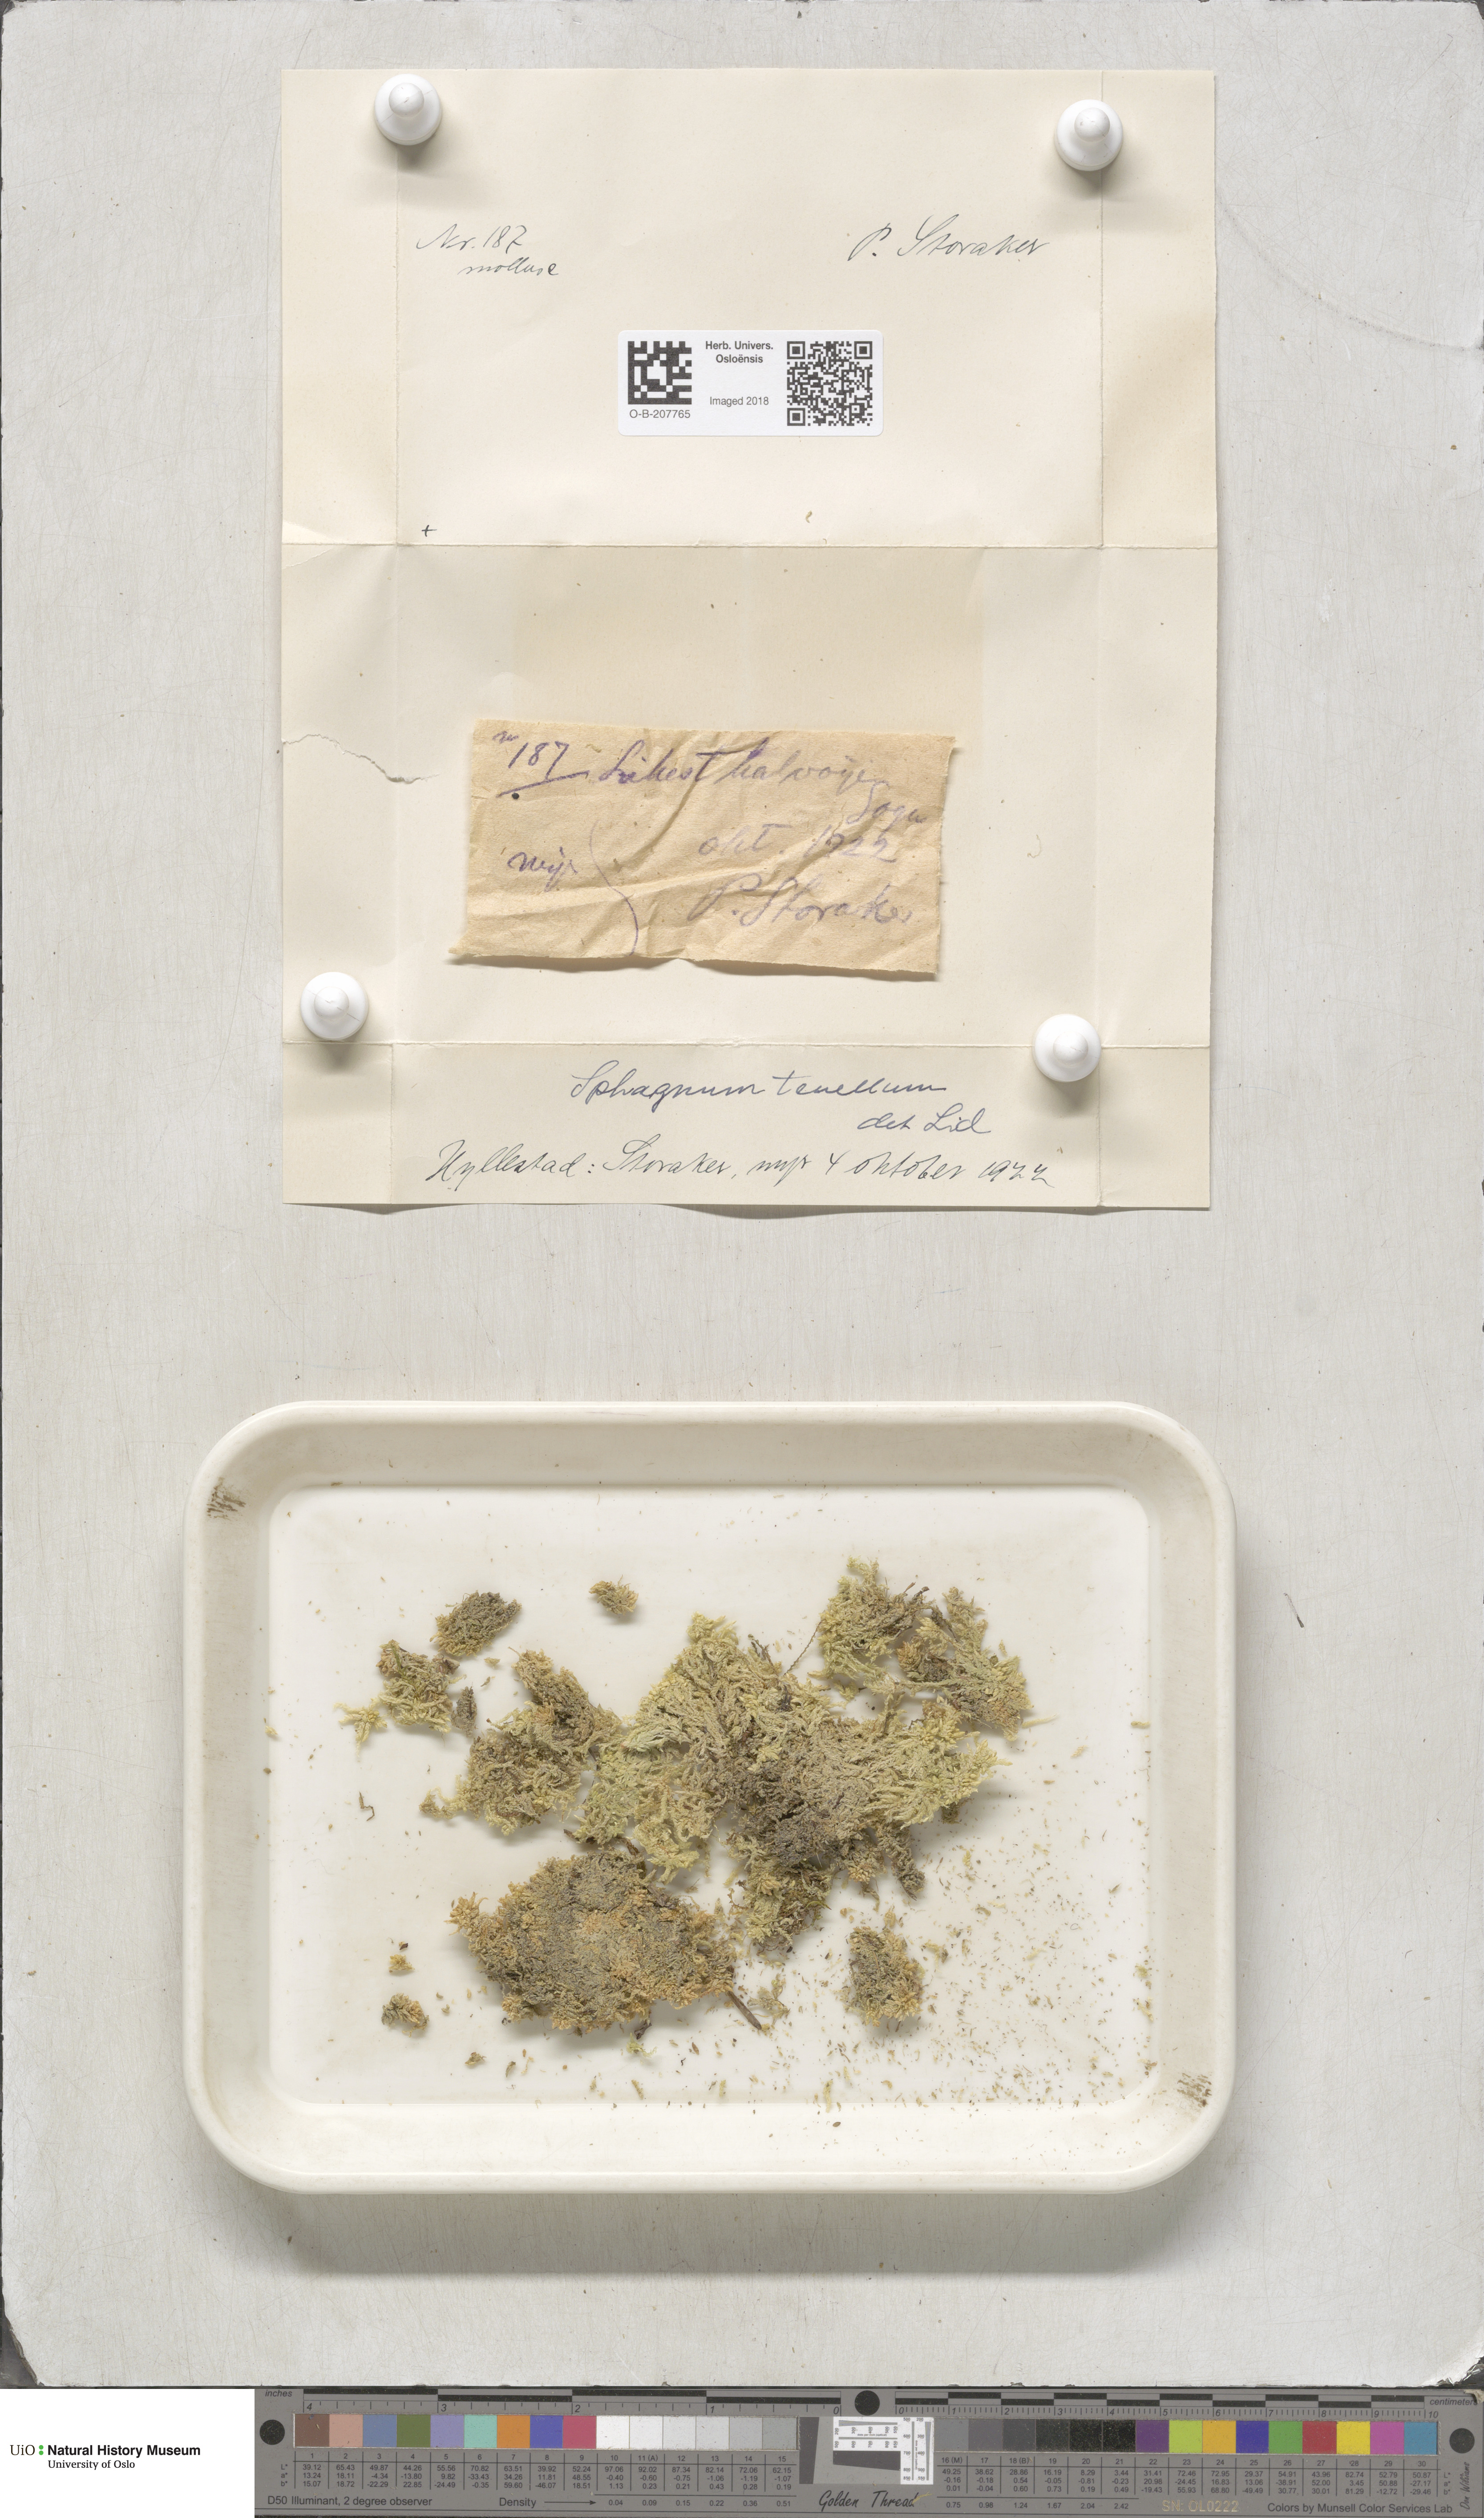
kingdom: Plantae
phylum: Bryophyta
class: Sphagnopsida
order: Sphagnales
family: Sphagnaceae
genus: Sphagnum
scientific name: Sphagnum tenellum
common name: Soft bog-moss
